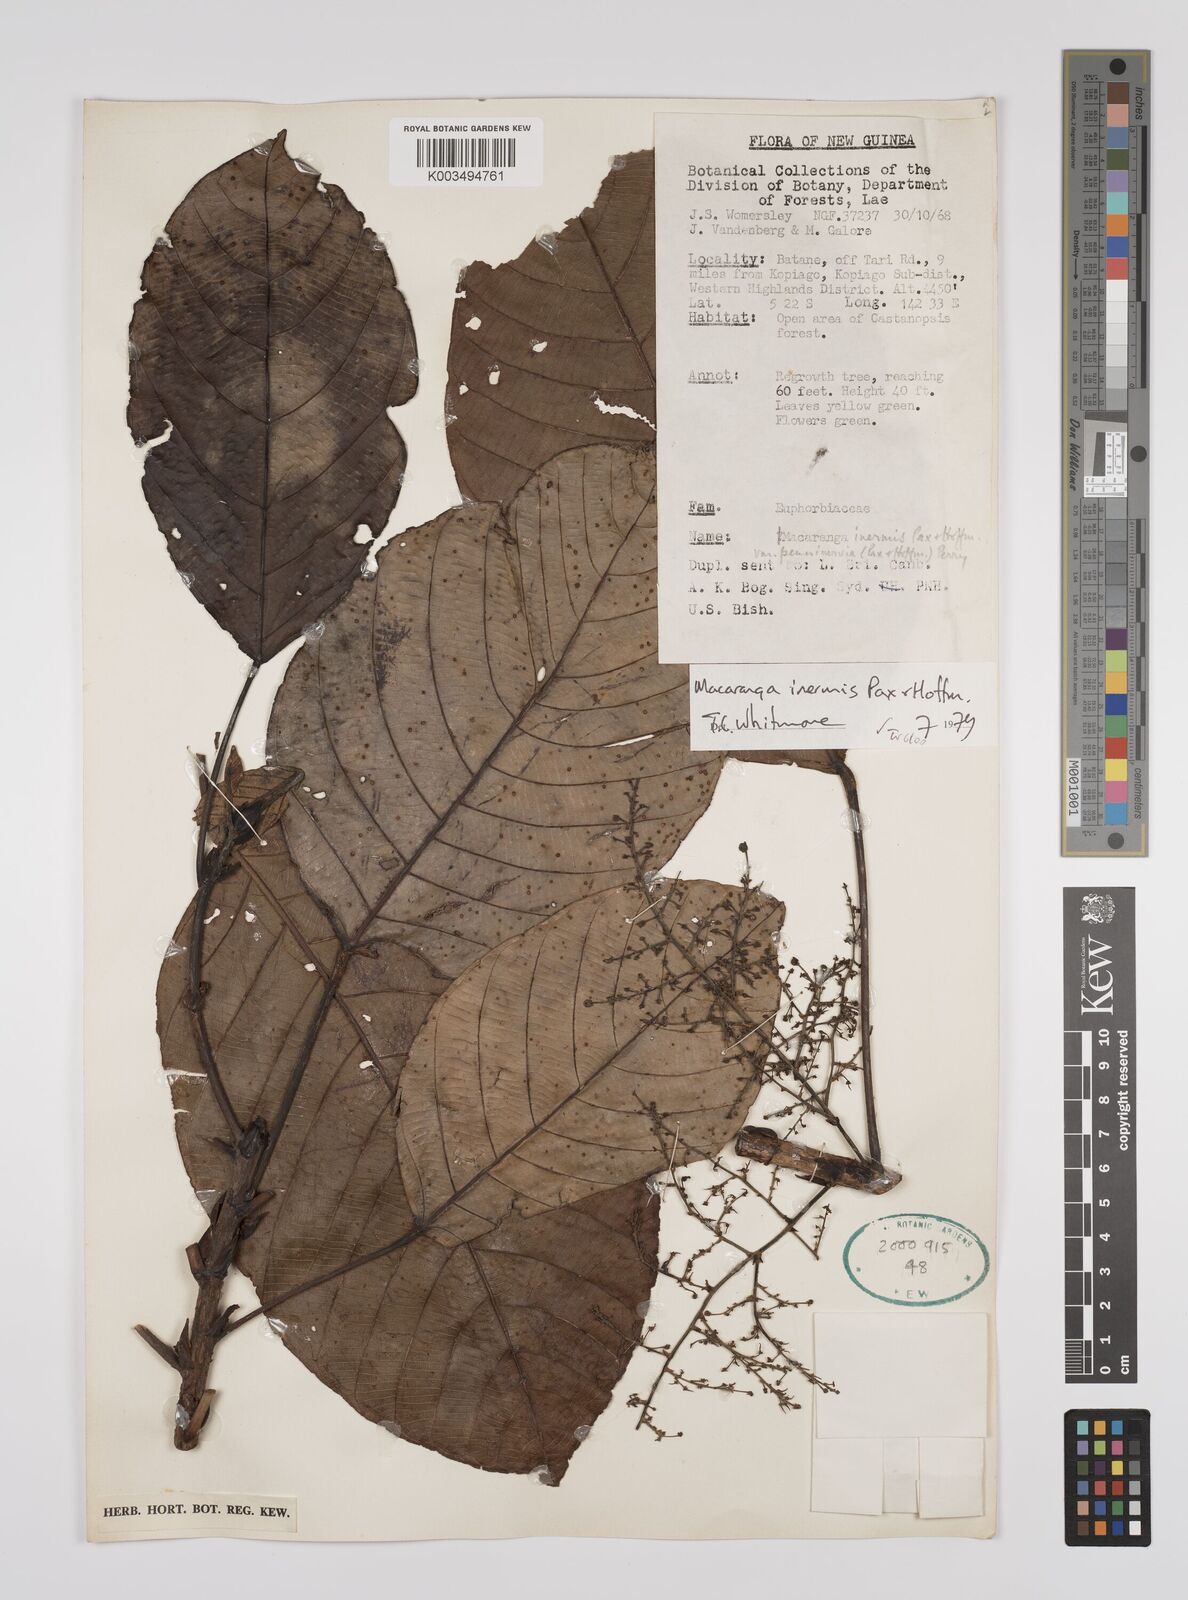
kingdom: Plantae
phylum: Tracheophyta
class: Magnoliopsida
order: Malpighiales
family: Euphorbiaceae
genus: Macaranga
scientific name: Macaranga inermis
